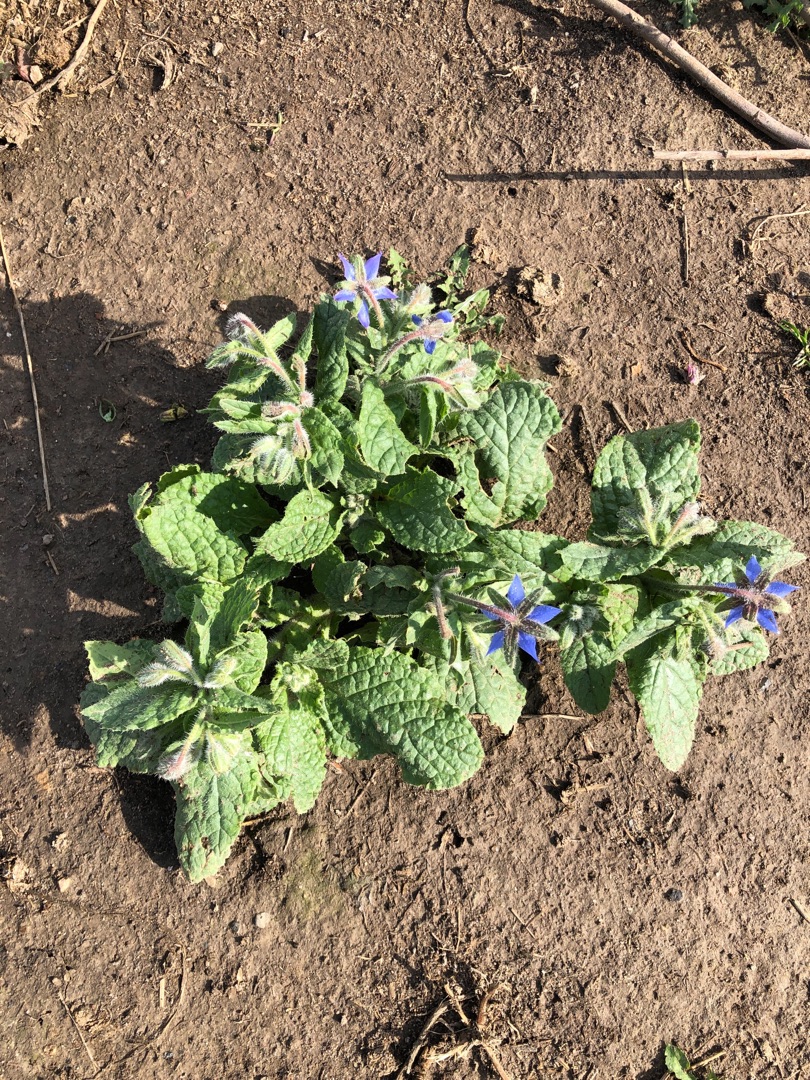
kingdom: Plantae
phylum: Tracheophyta
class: Magnoliopsida
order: Boraginales
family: Boraginaceae
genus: Borago
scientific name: Borago officinalis
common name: Hjulkrone
